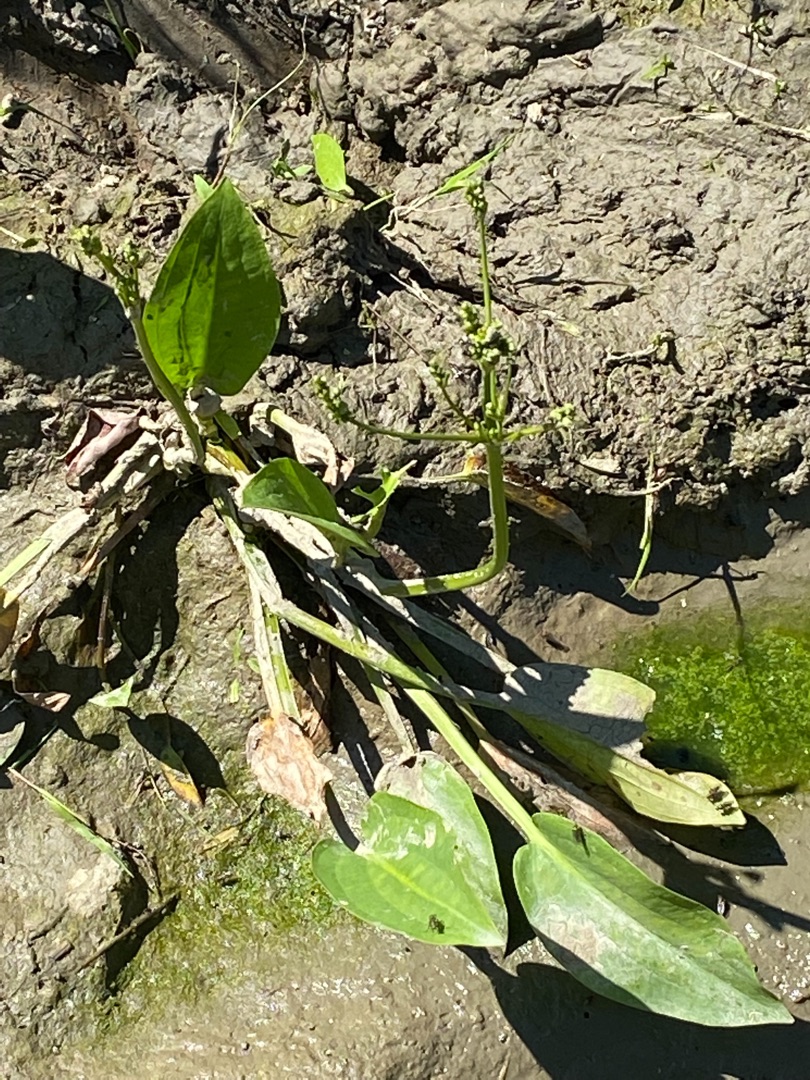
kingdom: Plantae
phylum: Tracheophyta
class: Magnoliopsida
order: Lamiales
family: Plantaginaceae
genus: Veronica
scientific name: Veronica catenata
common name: Vand-ærenpris
